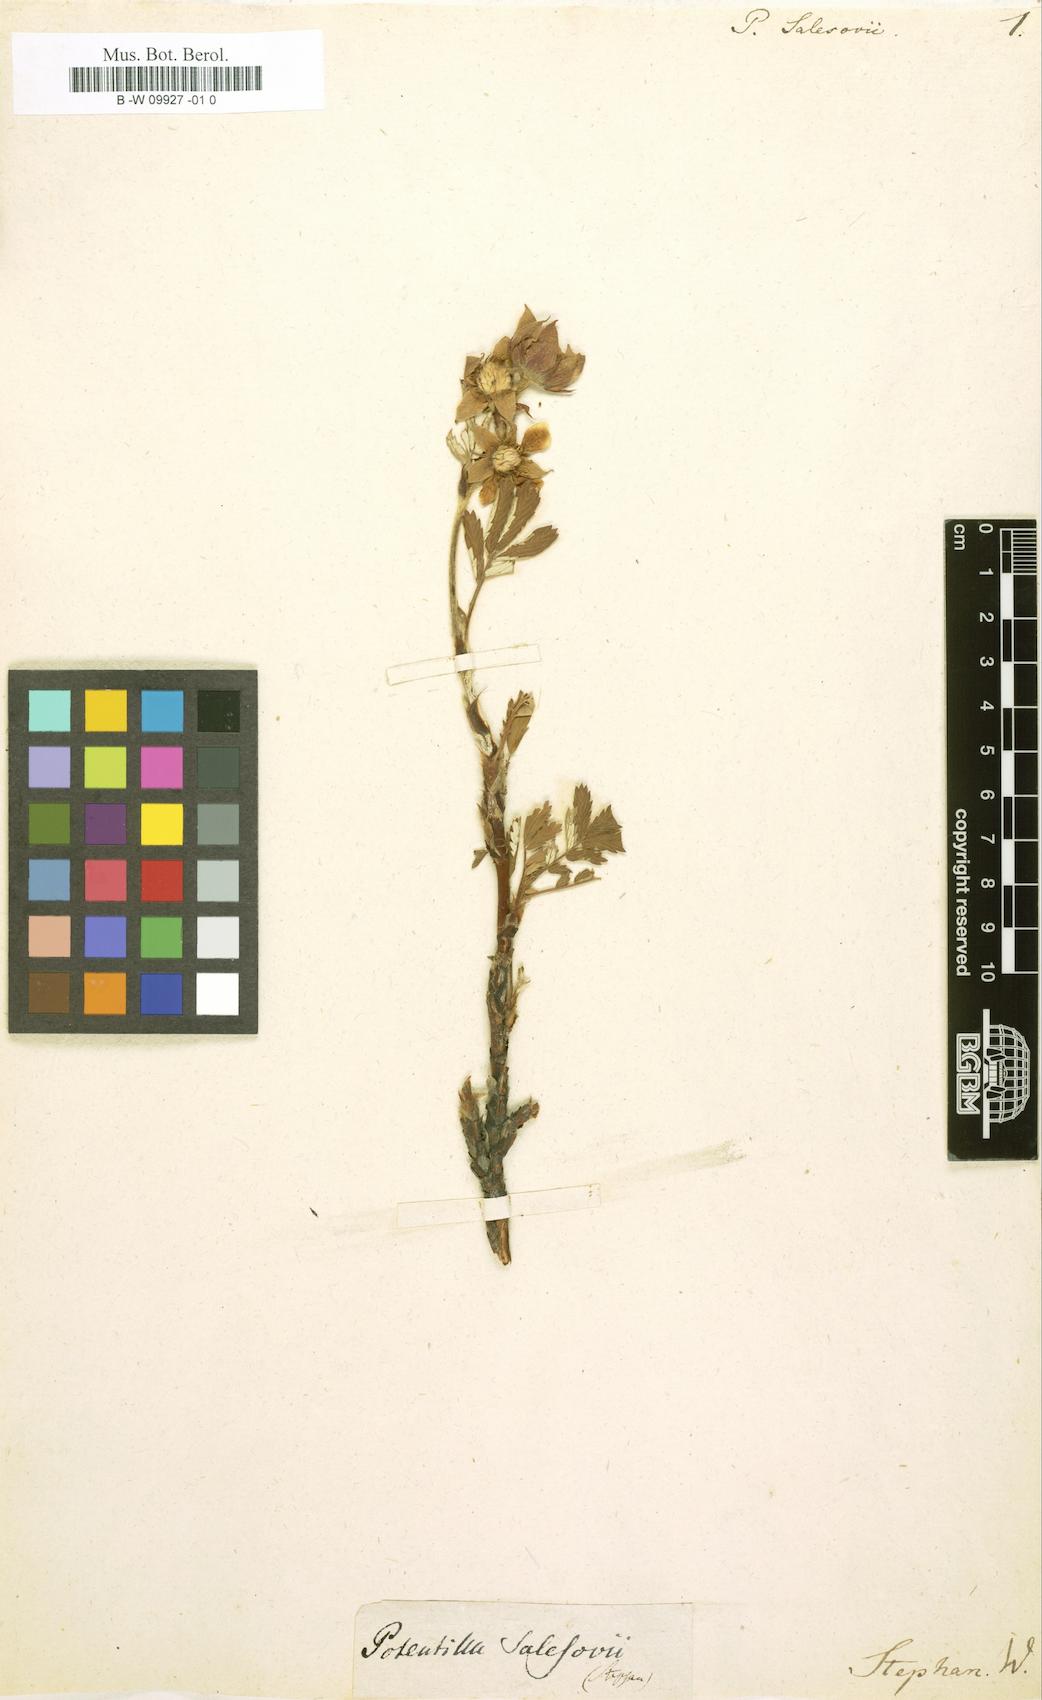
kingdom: Plantae
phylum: Tracheophyta
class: Magnoliopsida
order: Rosales
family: Rosaceae
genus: Farinopsis
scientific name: Farinopsis salesoviana
